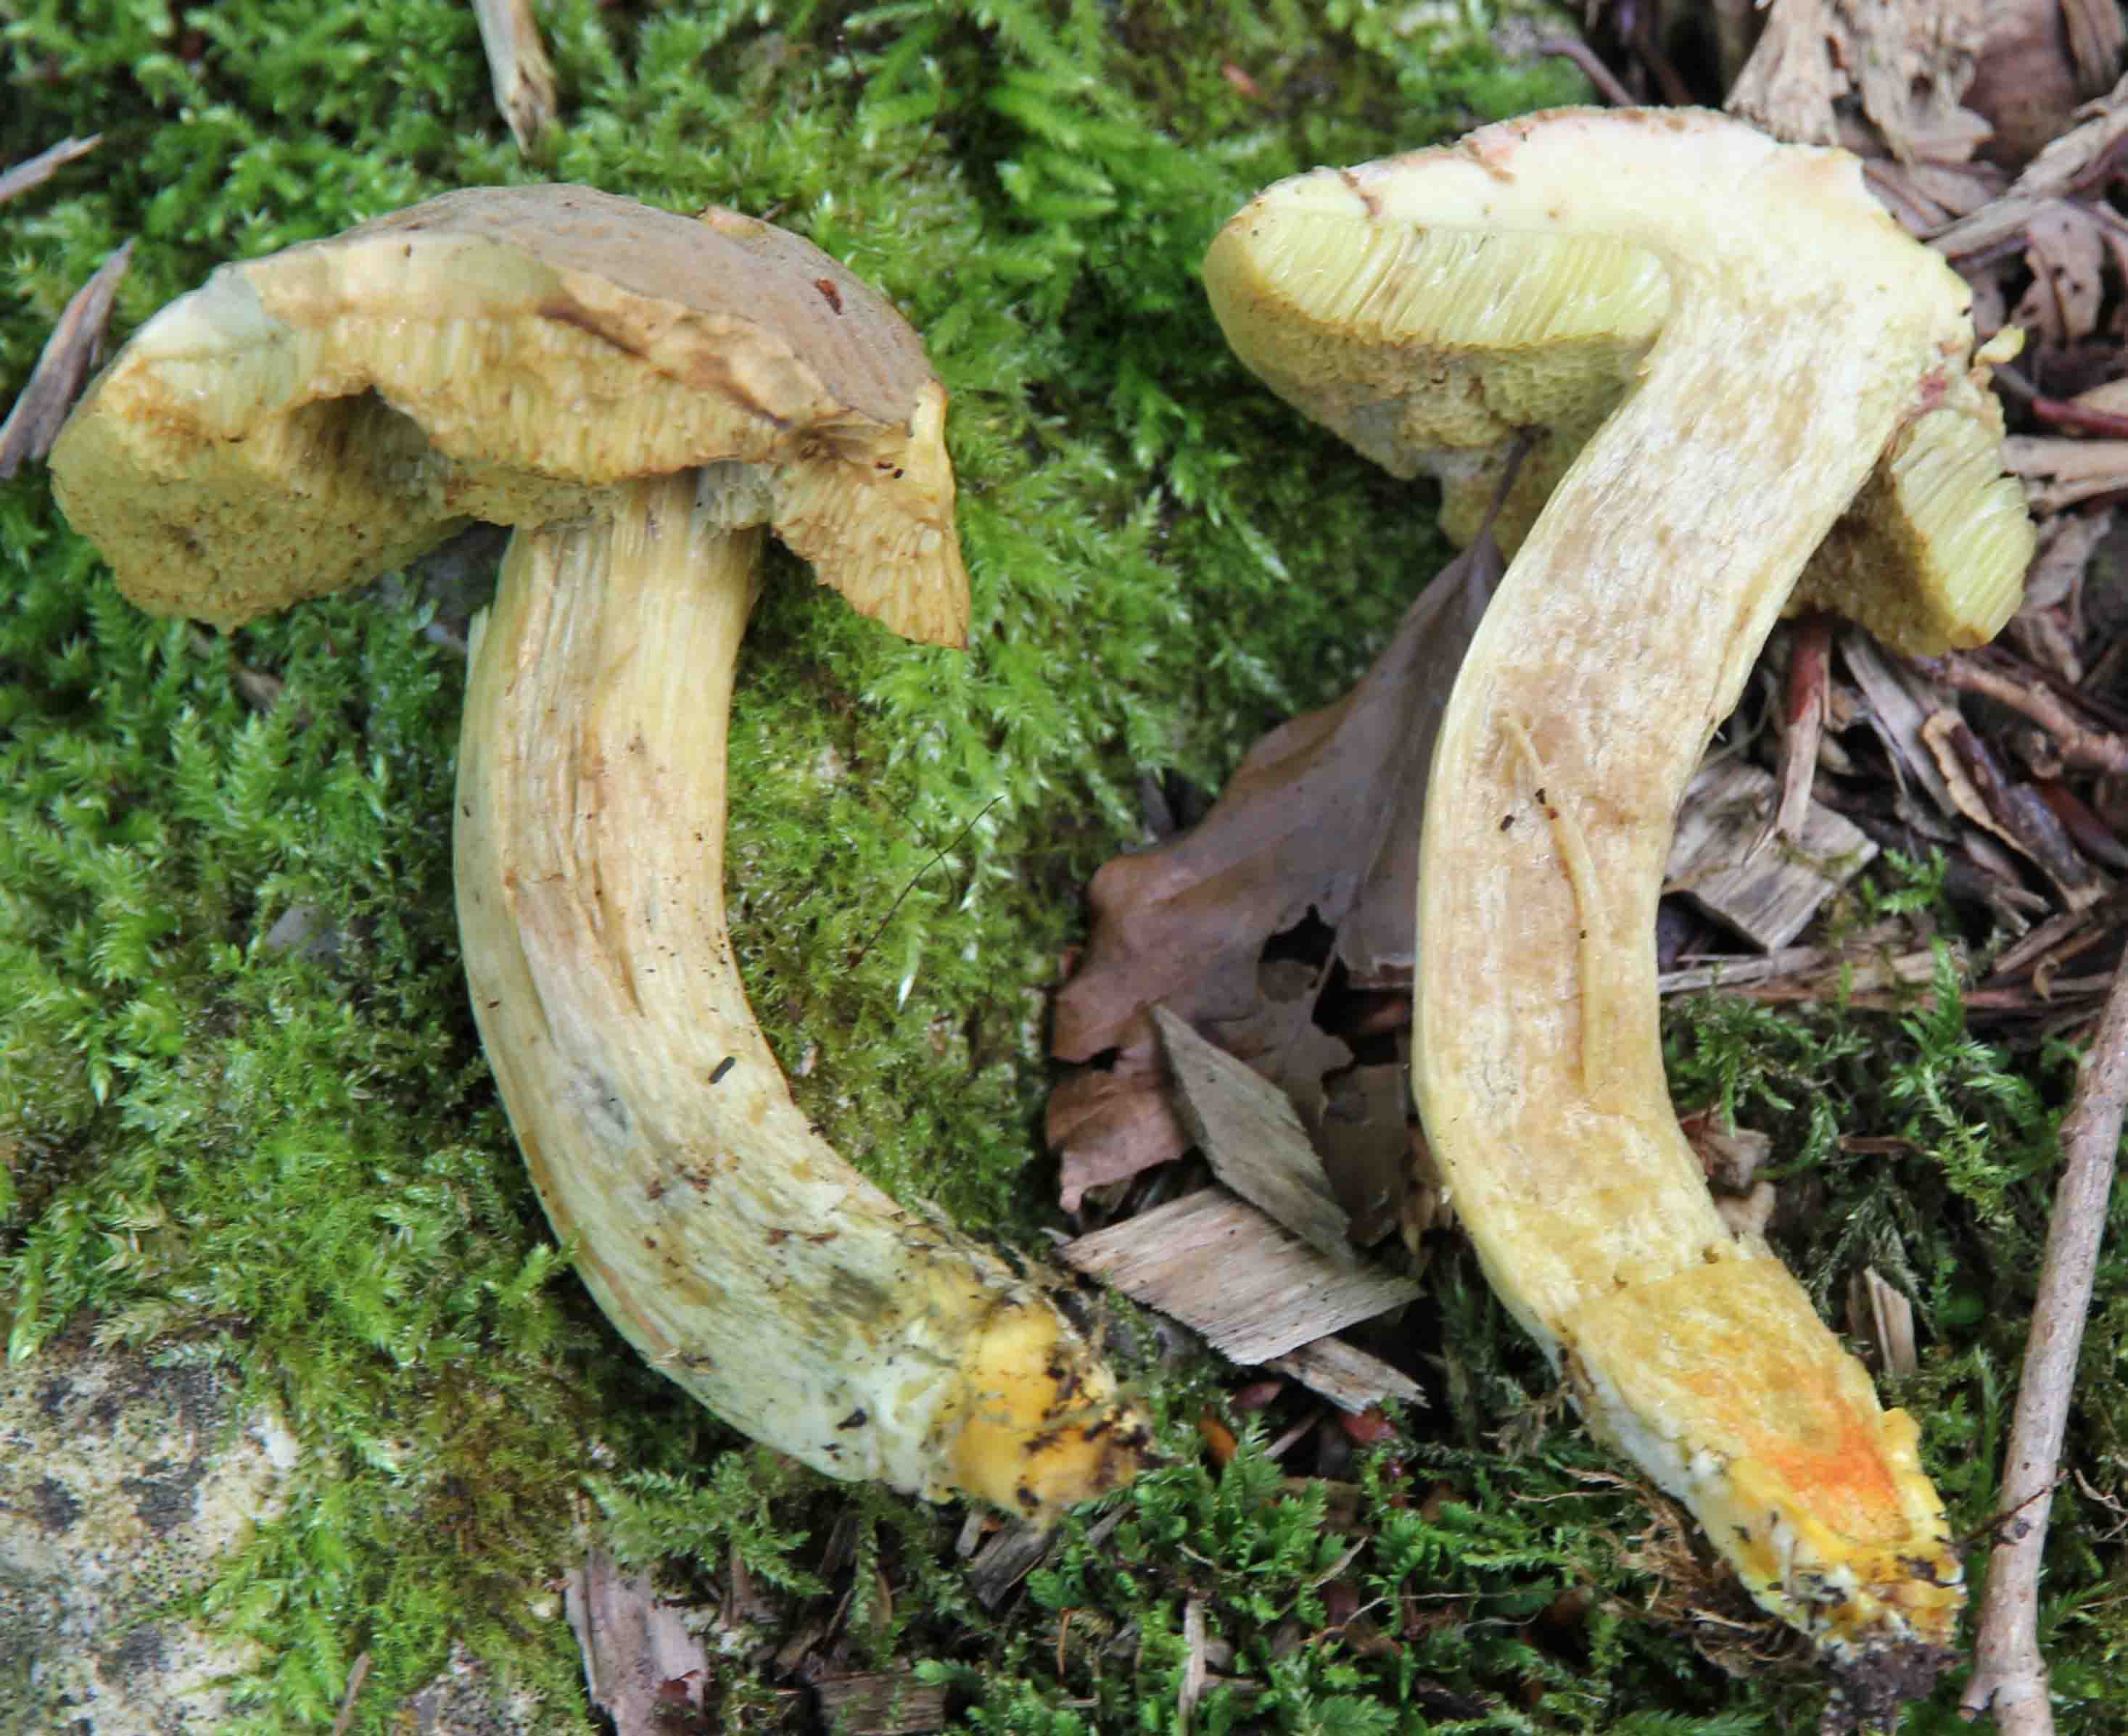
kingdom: Fungi
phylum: Basidiomycota
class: Agaricomycetes
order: Boletales
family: Boletaceae
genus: Hortiboletus
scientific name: Hortiboletus engelii
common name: fersken-rørhat
